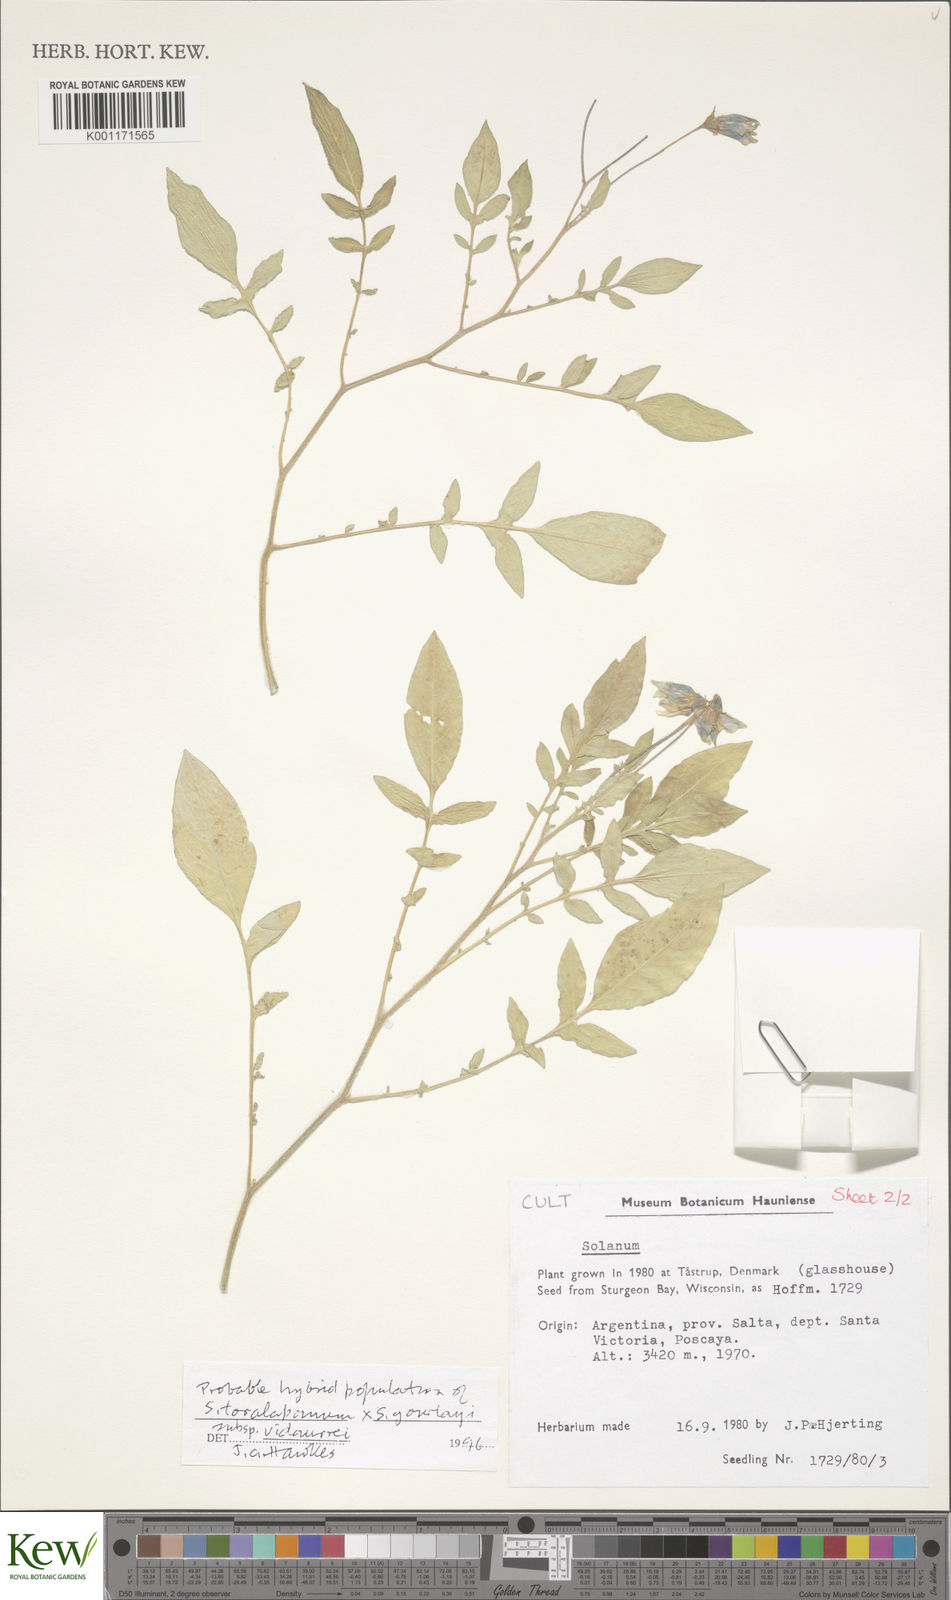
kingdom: Plantae
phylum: Tracheophyta
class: Magnoliopsida
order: Solanales
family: Solanaceae
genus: Solanum
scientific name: Solanum brevicaule
